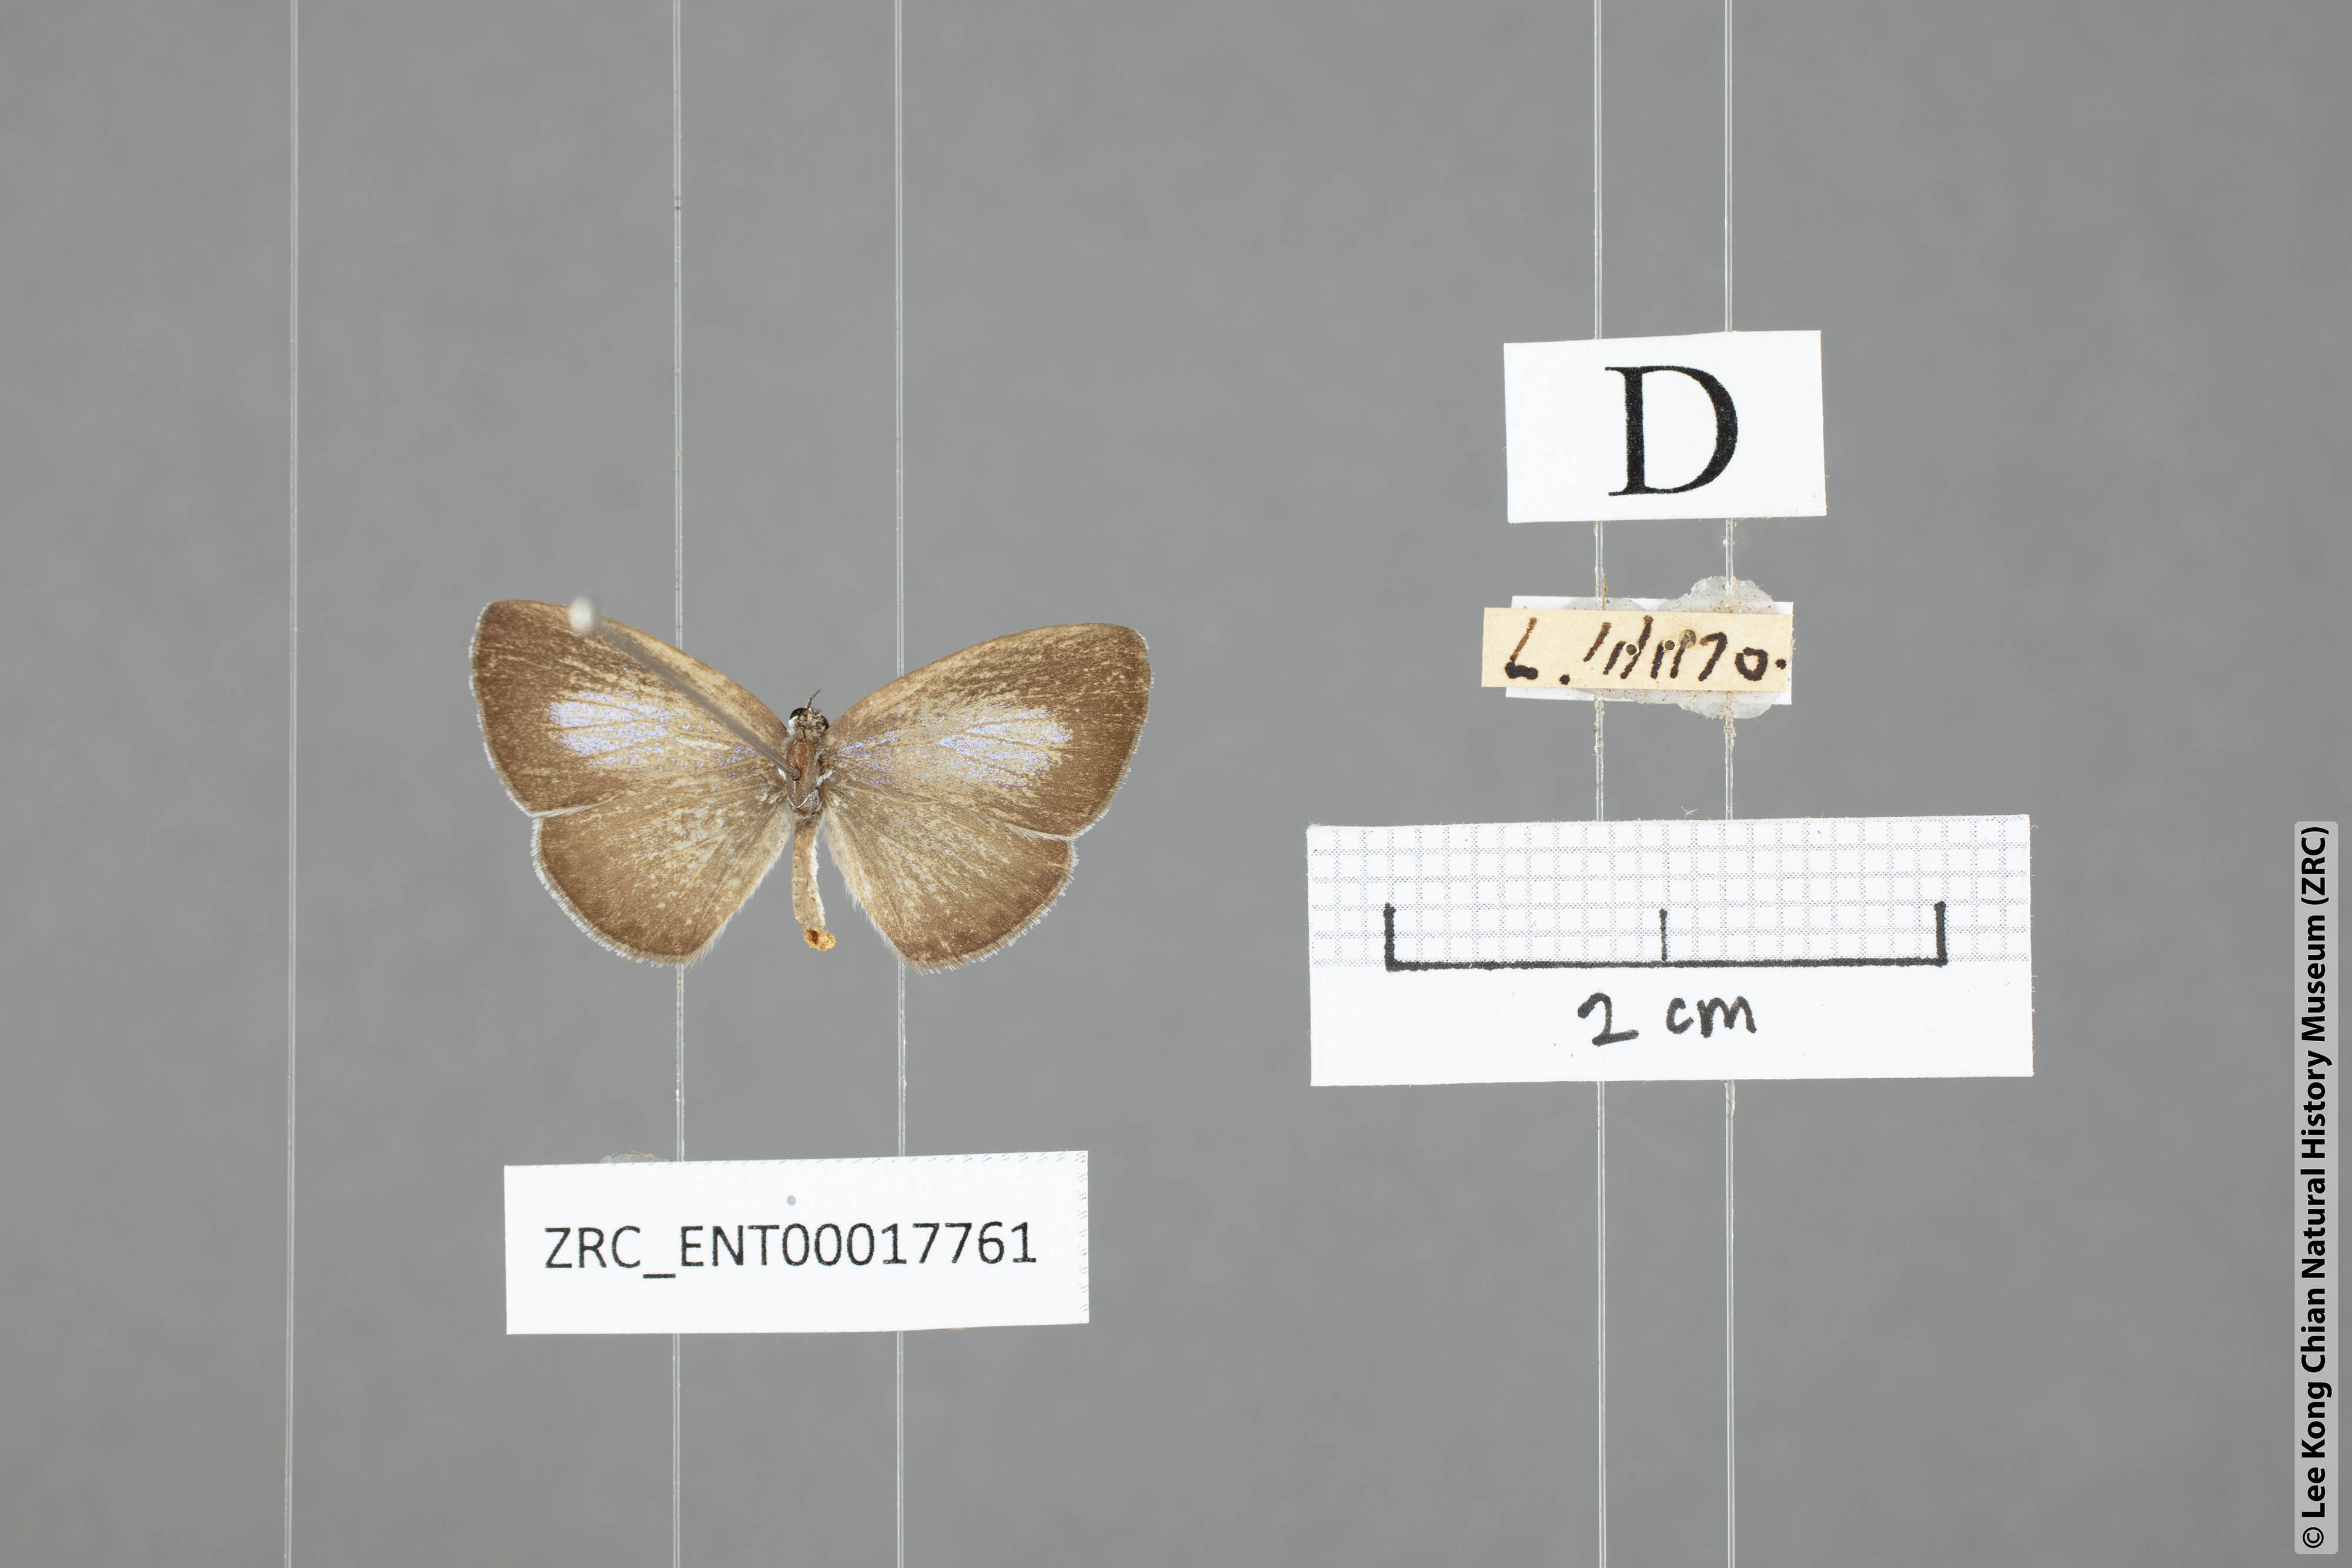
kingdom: Animalia
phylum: Arthropoda
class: Insecta
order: Lepidoptera
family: Lycaenidae
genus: Udara
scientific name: Udara
